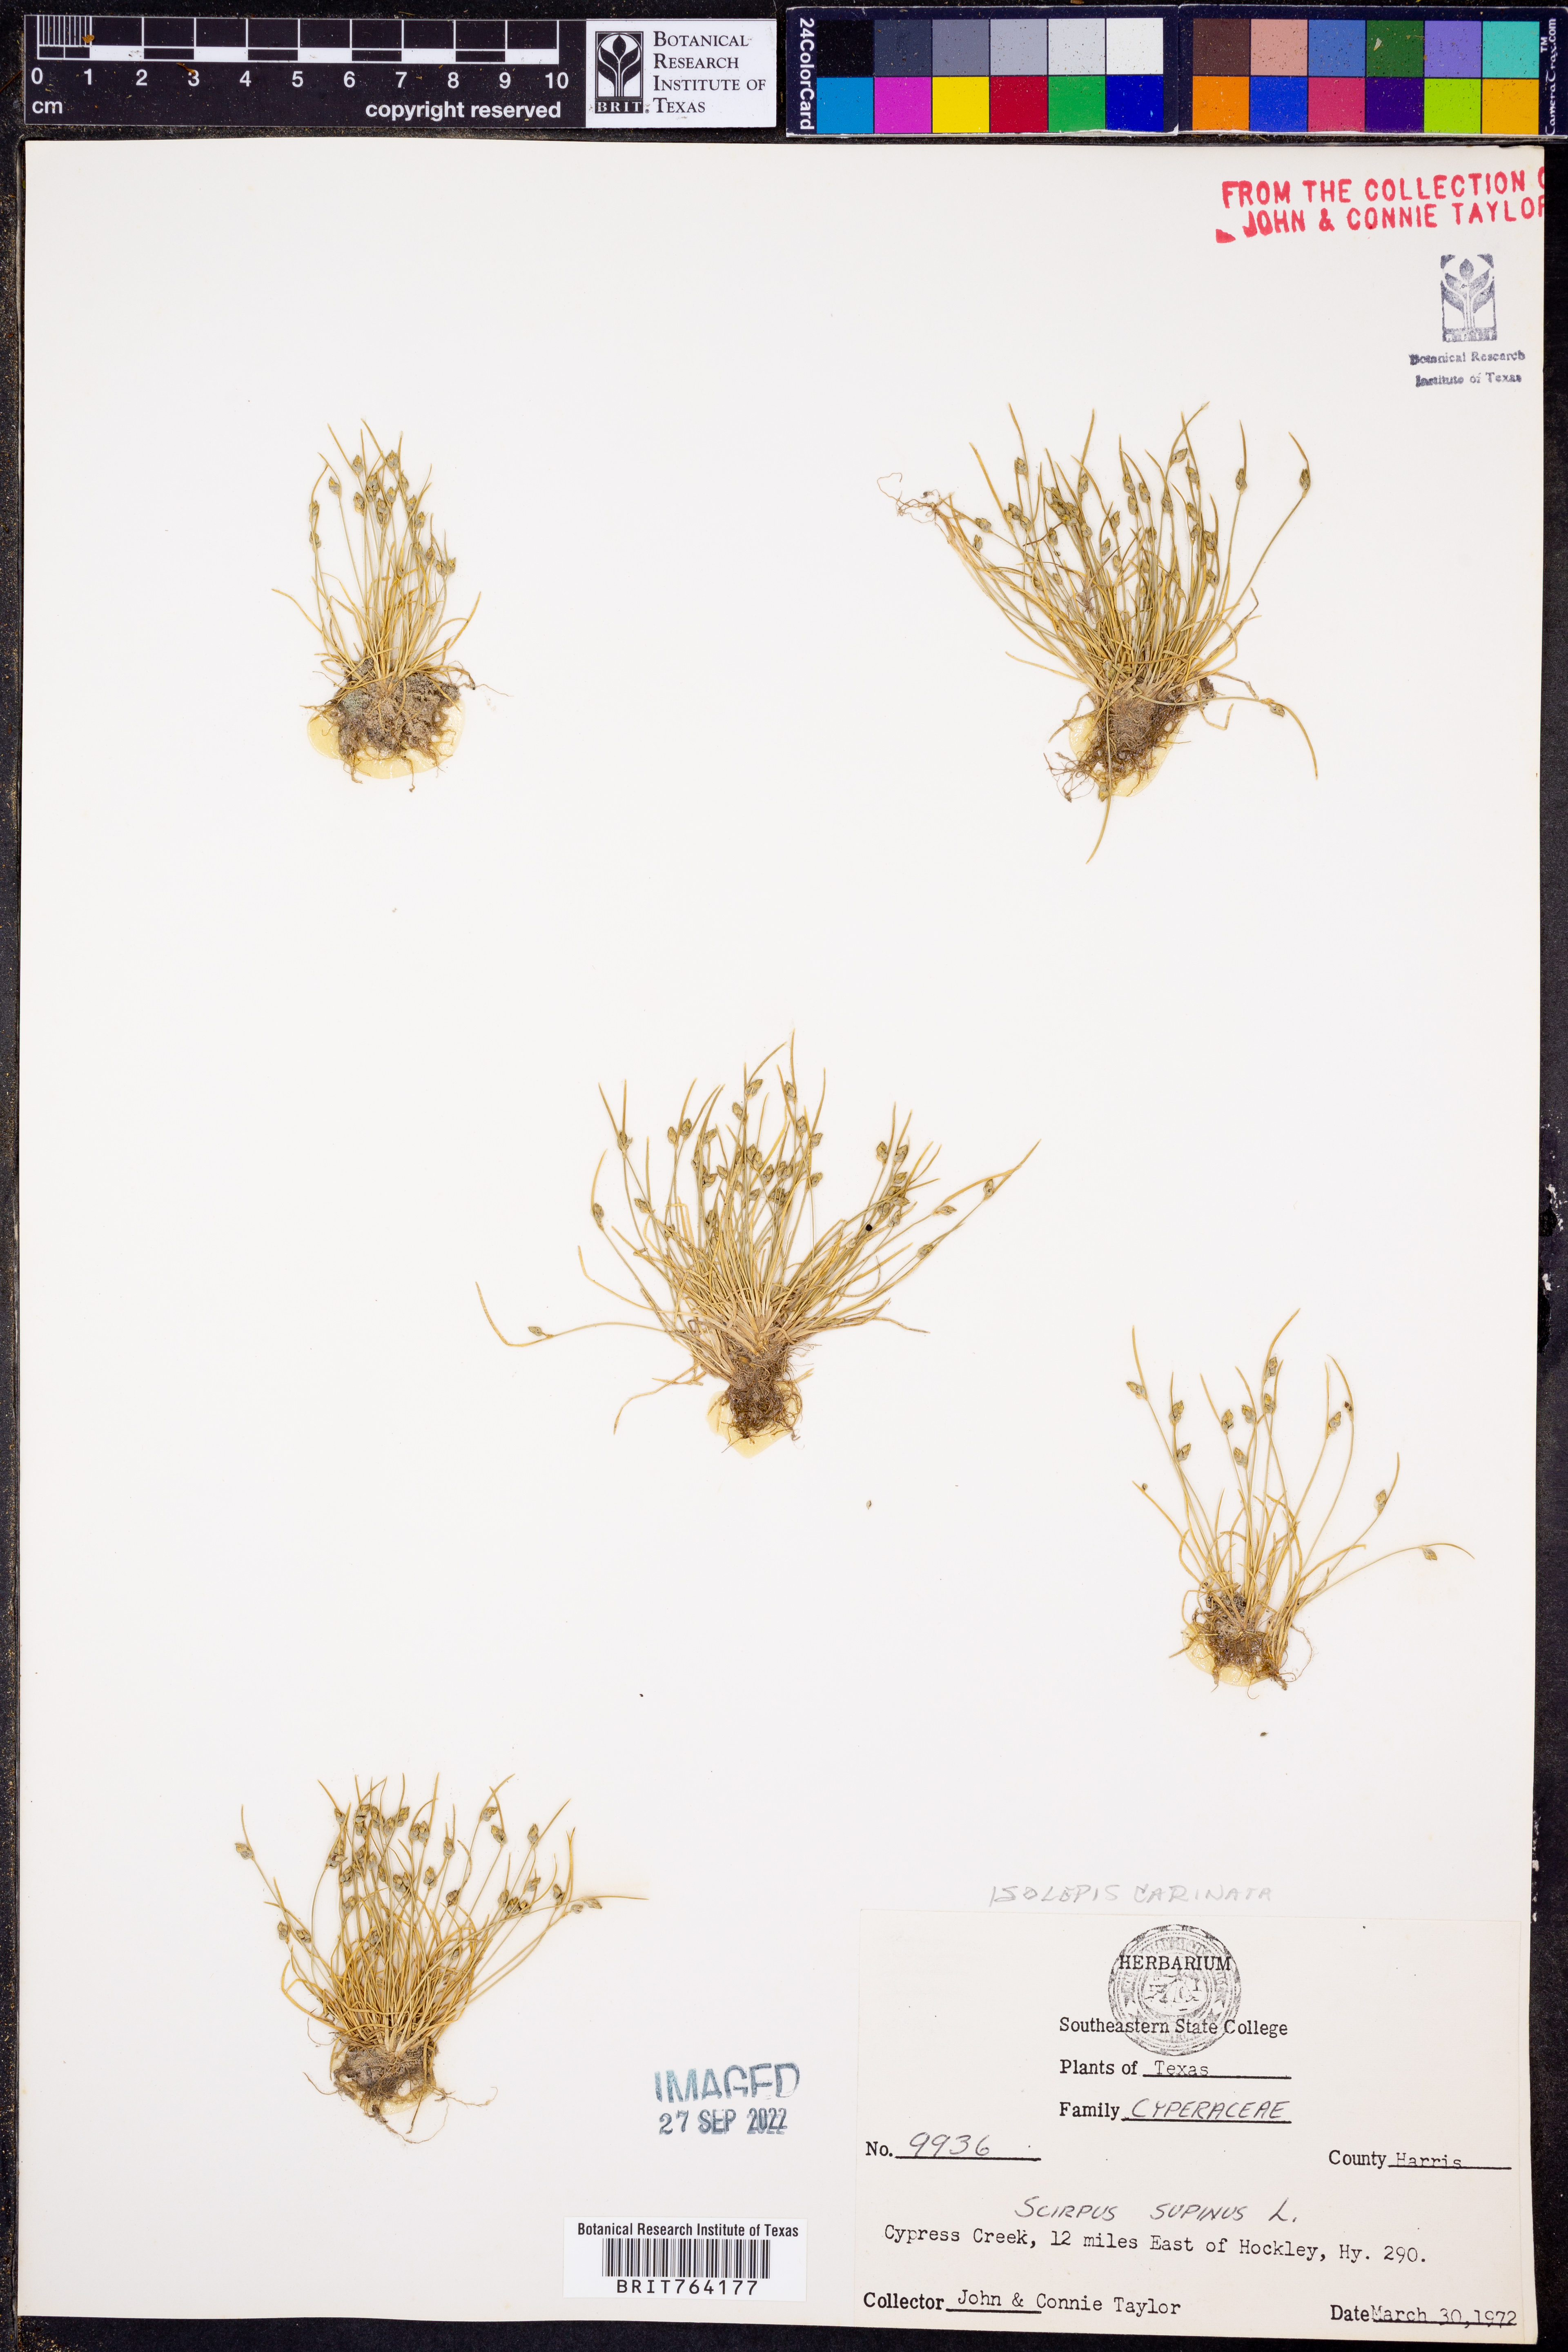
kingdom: Plantae
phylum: Tracheophyta
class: Liliopsida
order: Poales
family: Cyperaceae
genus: Isolepis
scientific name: Isolepis carinata
